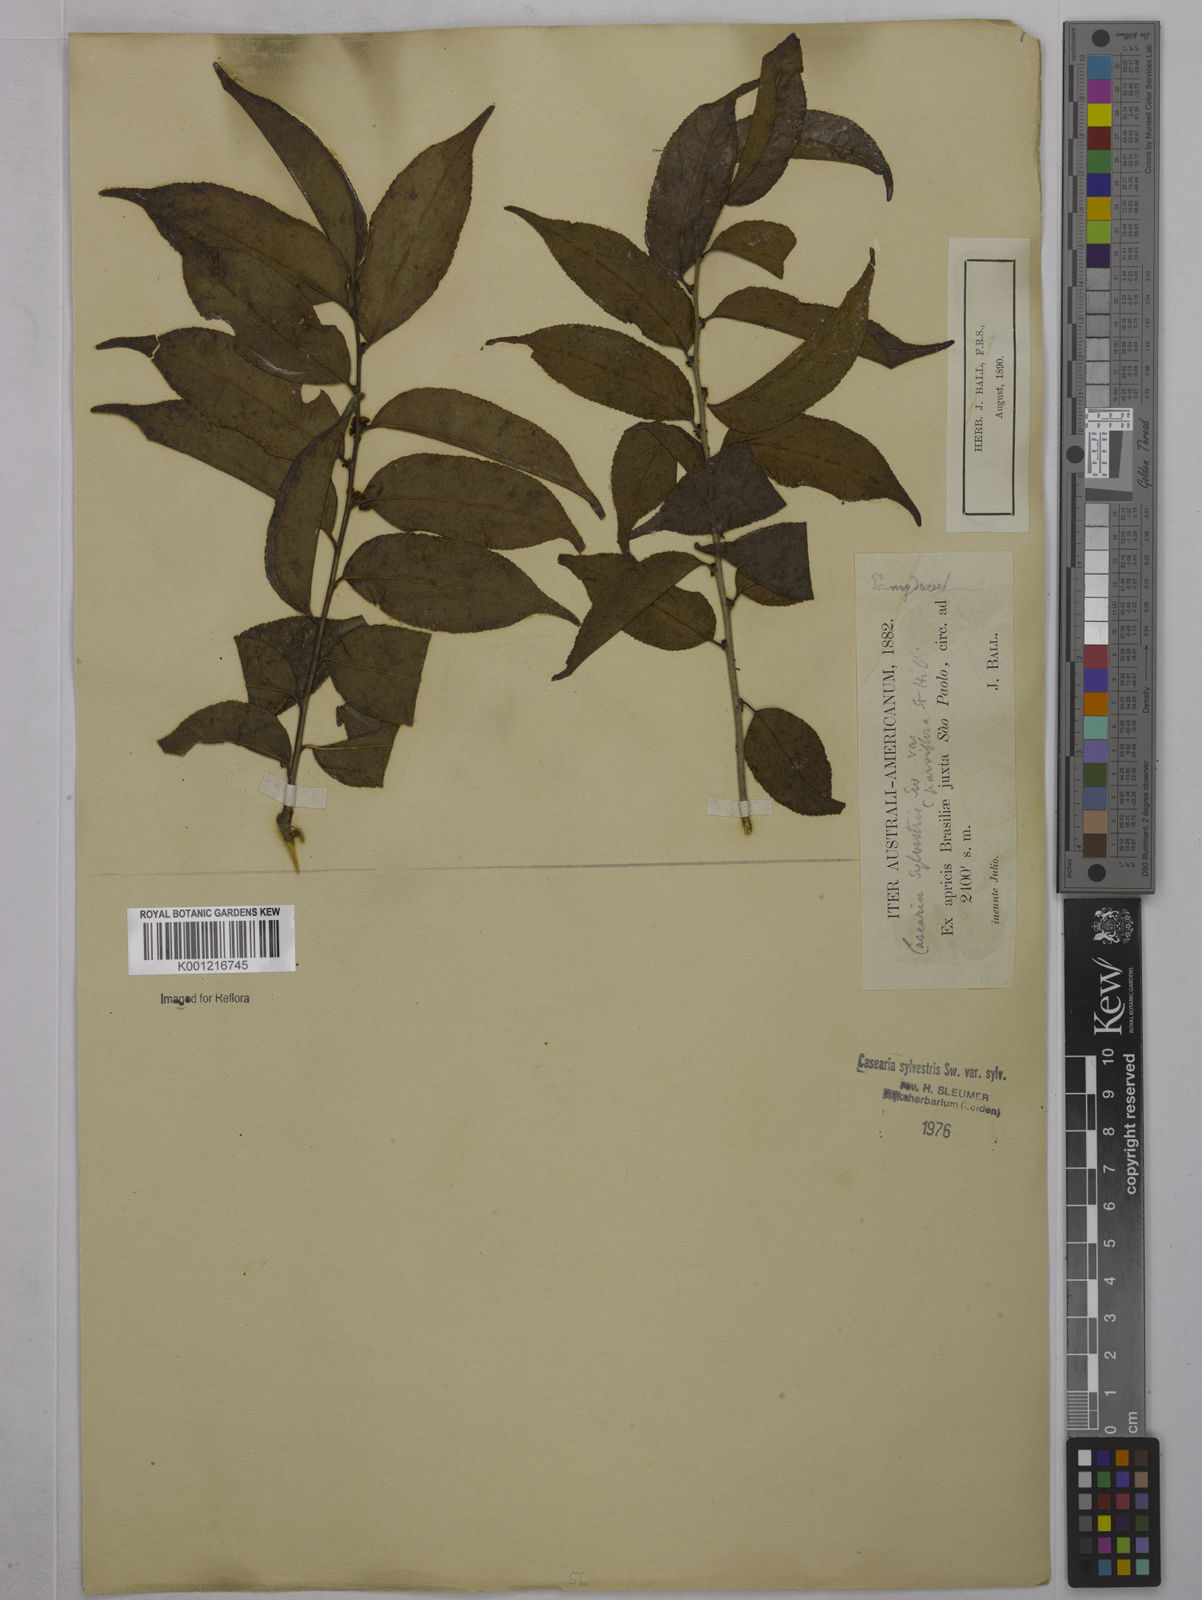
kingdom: Plantae
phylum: Tracheophyta
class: Magnoliopsida
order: Malpighiales
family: Salicaceae
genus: Casearia
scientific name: Casearia sylvestris
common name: Wild sage
